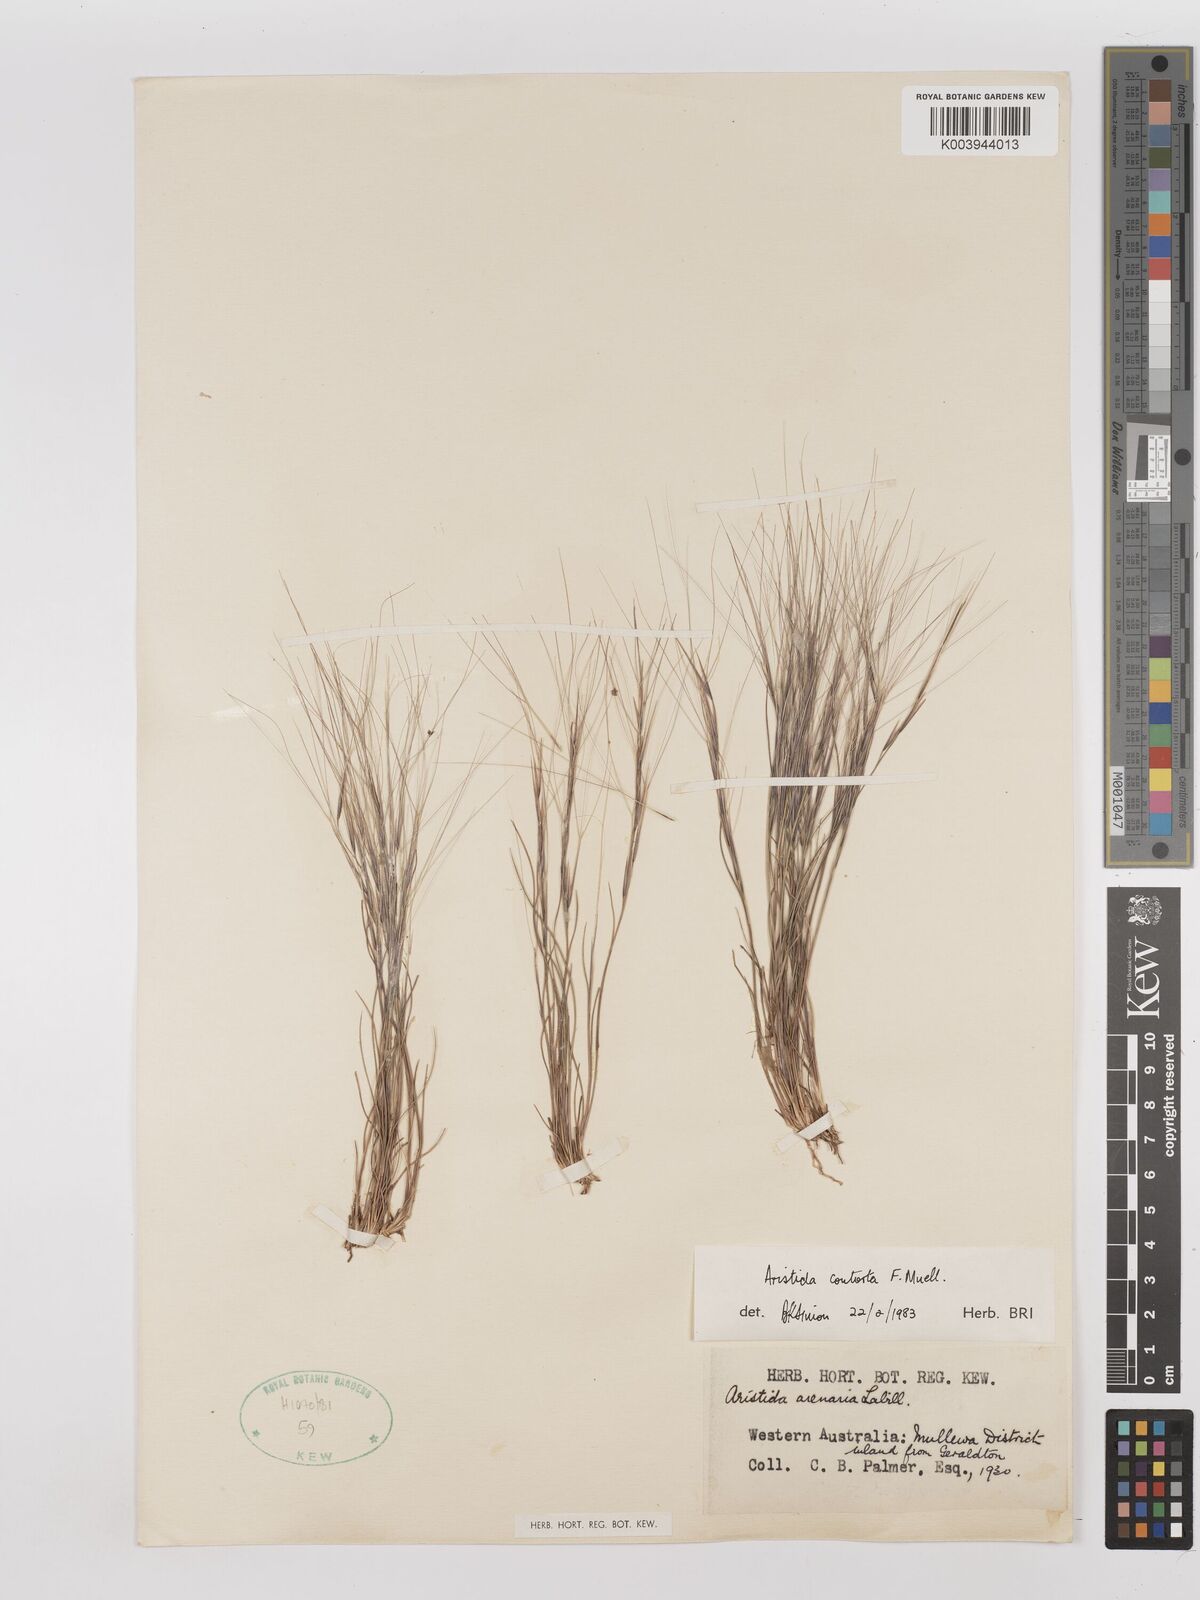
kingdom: Plantae
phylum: Tracheophyta
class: Liliopsida
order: Poales
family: Poaceae
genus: Aristida
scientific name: Aristida contorta
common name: Bunch kerosene grass
